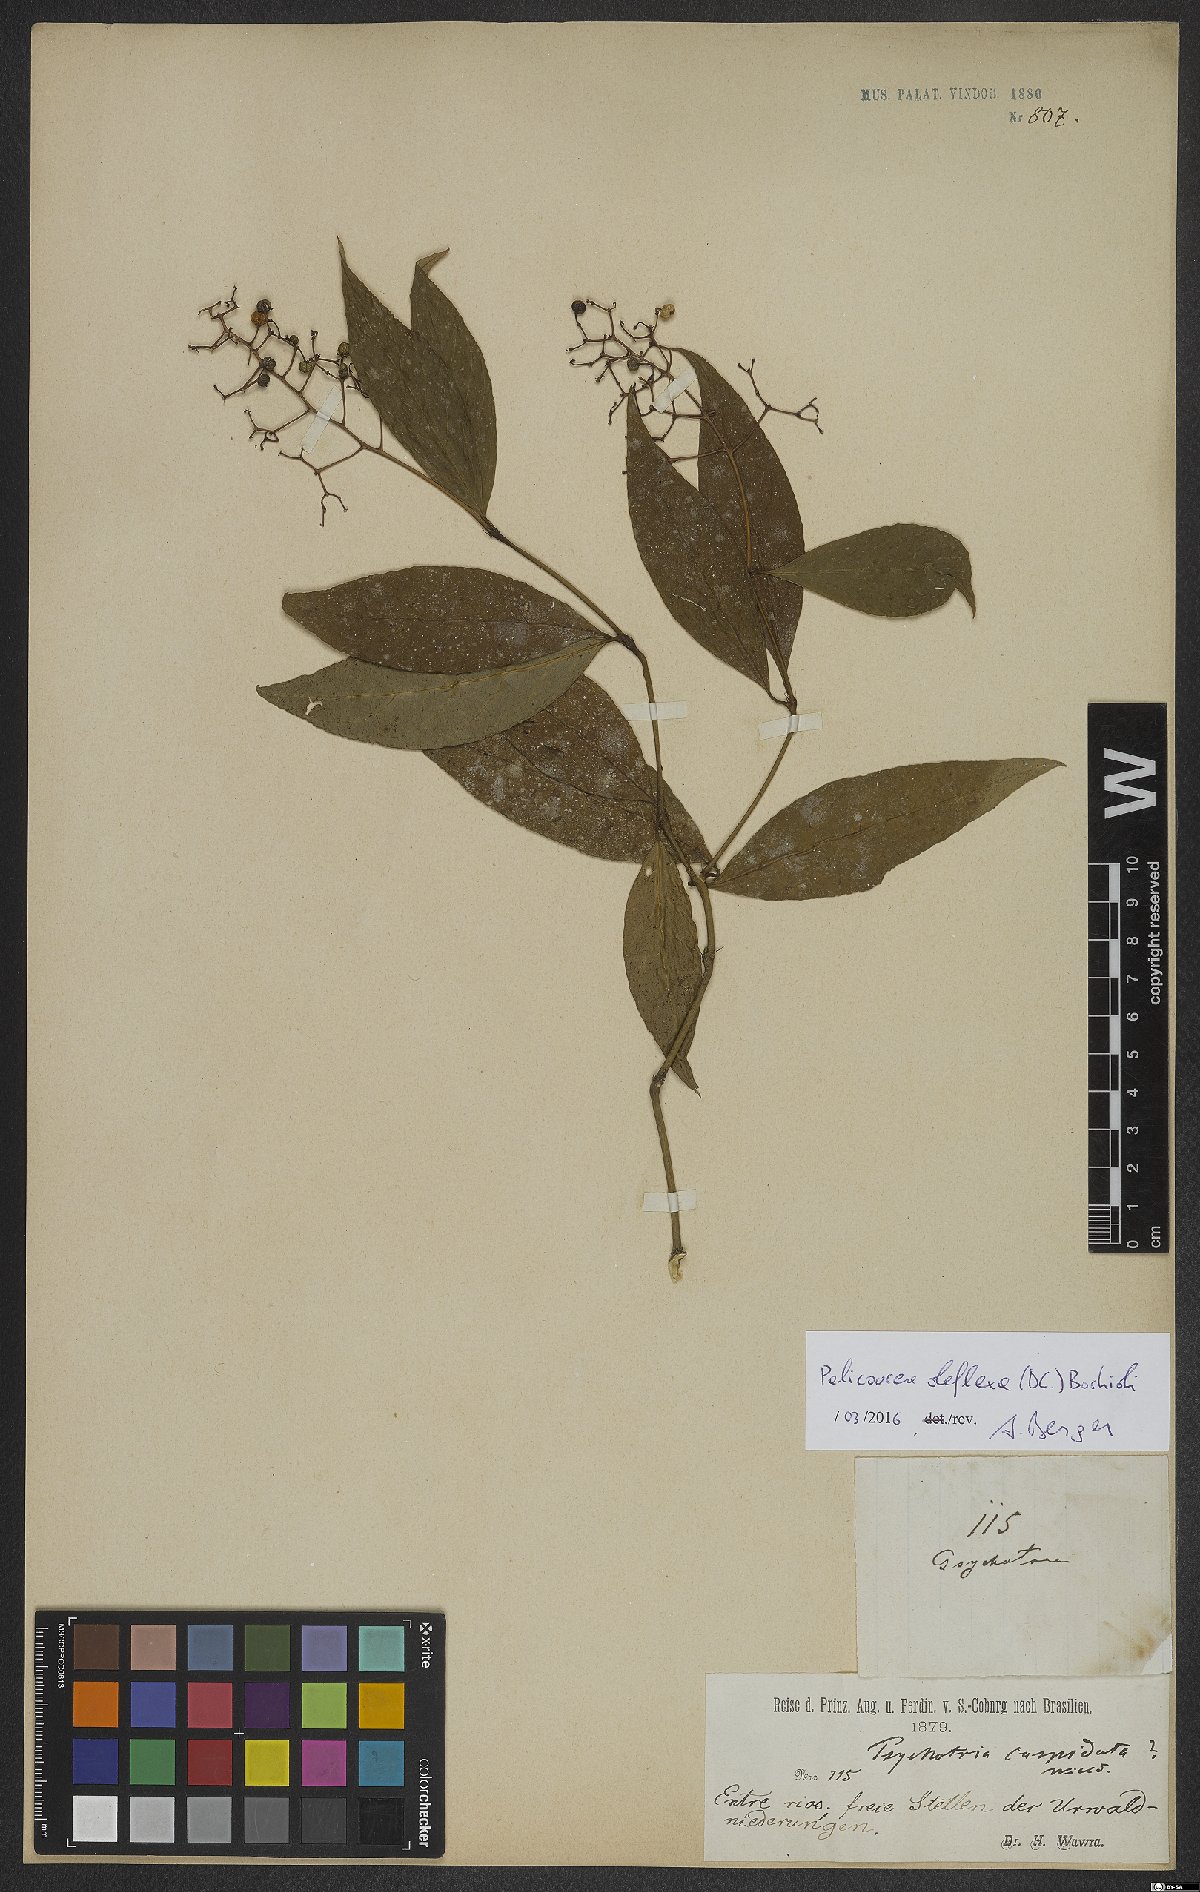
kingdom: Plantae
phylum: Tracheophyta
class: Magnoliopsida
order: Gentianales
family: Rubiaceae
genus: Palicourea
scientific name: Palicourea deflexa
